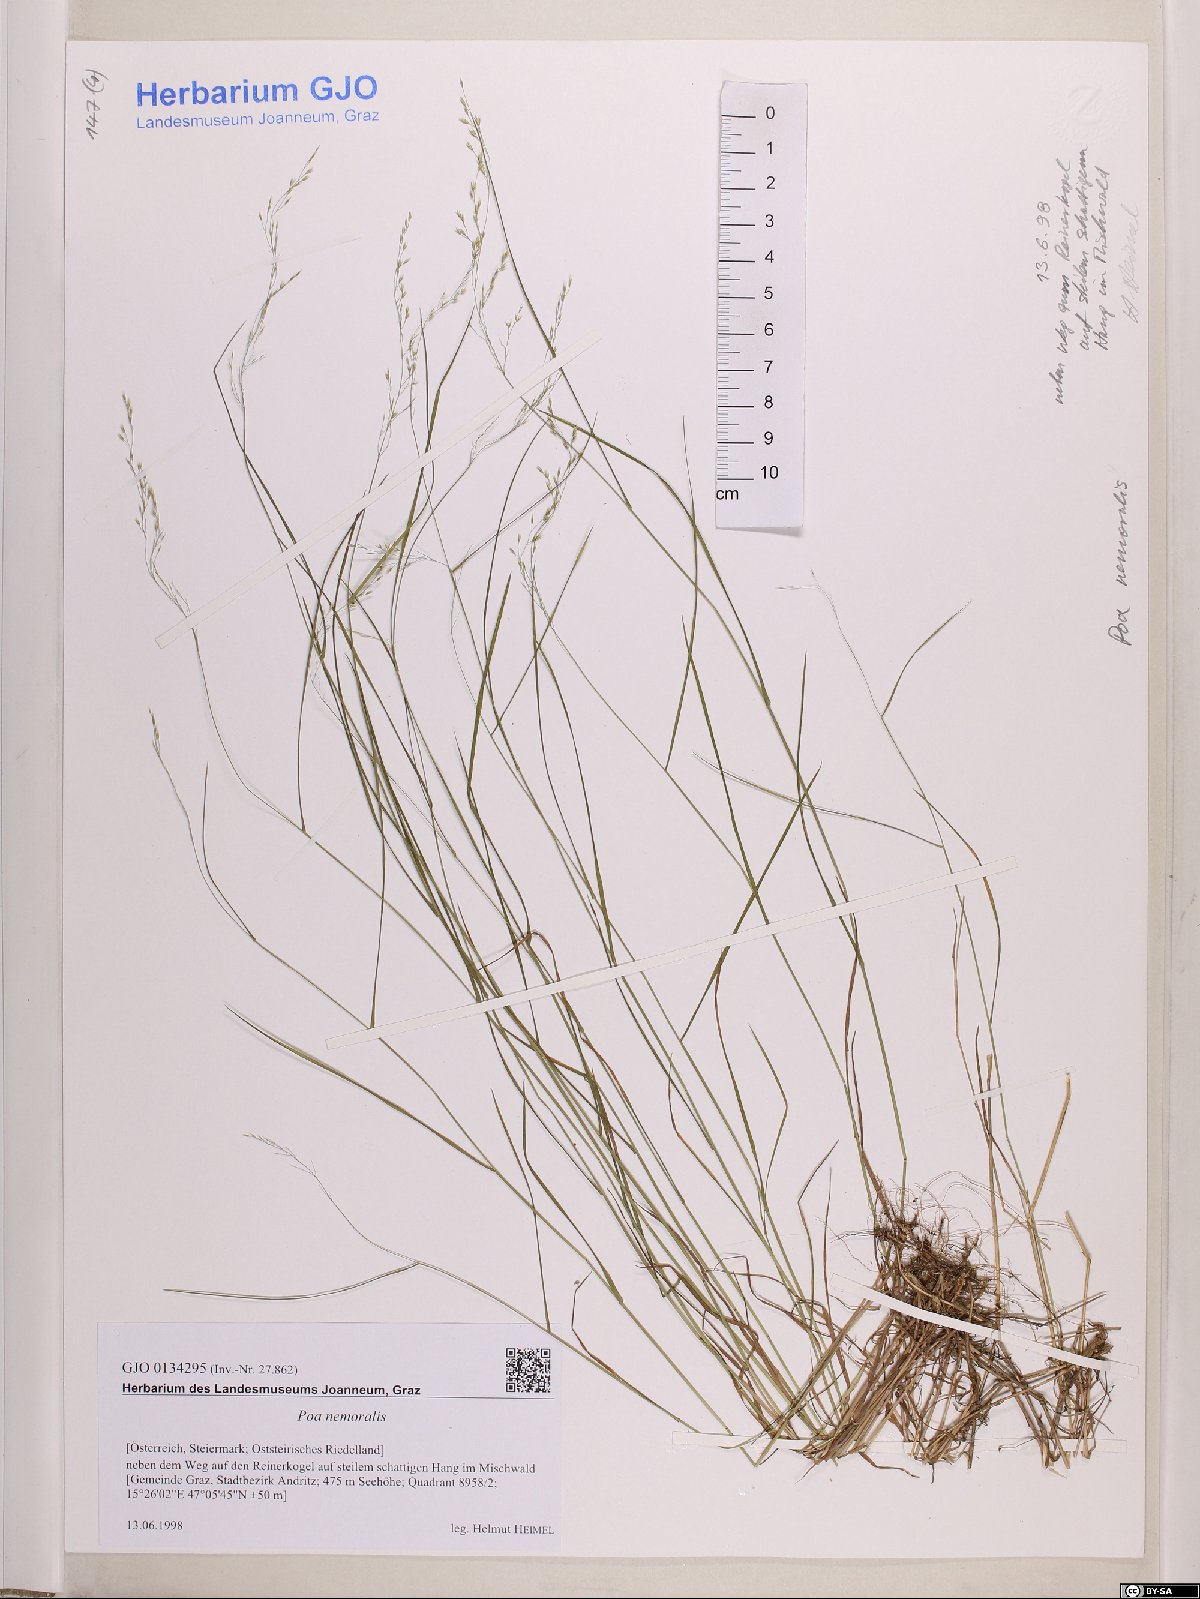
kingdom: Plantae
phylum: Tracheophyta
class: Liliopsida
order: Poales
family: Poaceae
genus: Poa
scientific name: Poa nemoralis
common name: Wood bluegrass
